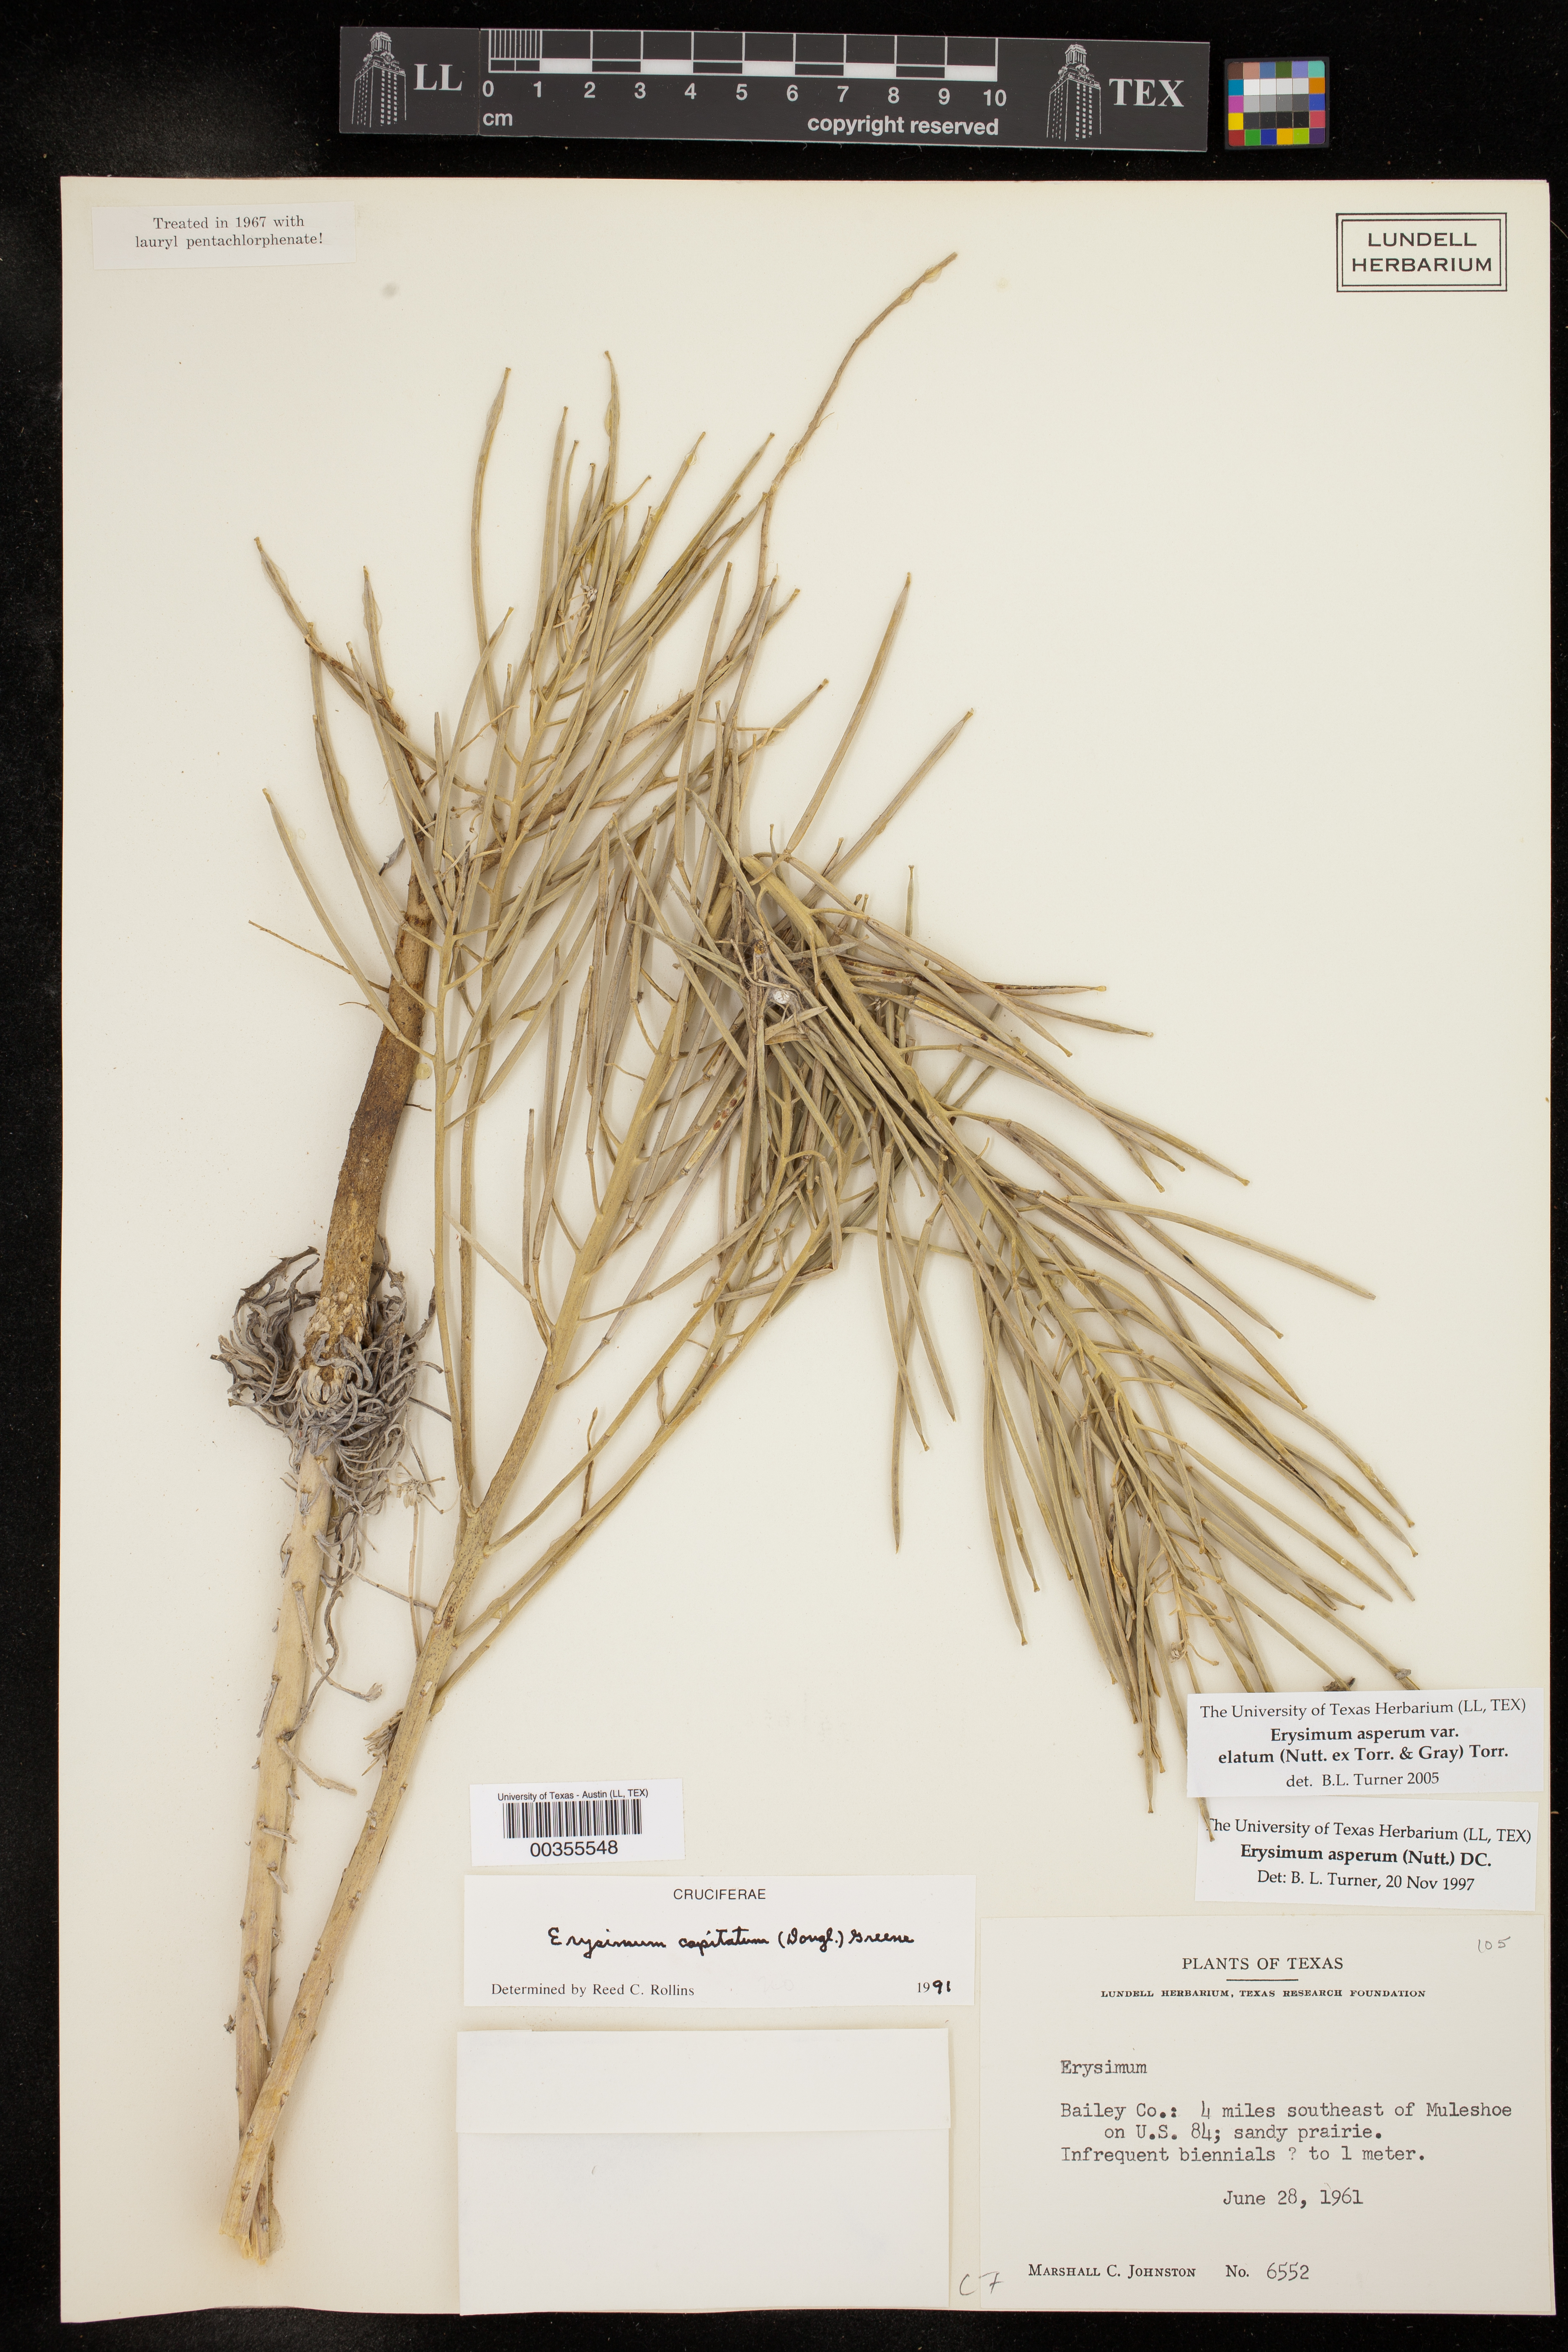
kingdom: Plantae
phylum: Tracheophyta
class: Magnoliopsida
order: Brassicales
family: Brassicaceae
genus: Erysimum
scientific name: Erysimum capitatum
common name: Western wallflower
